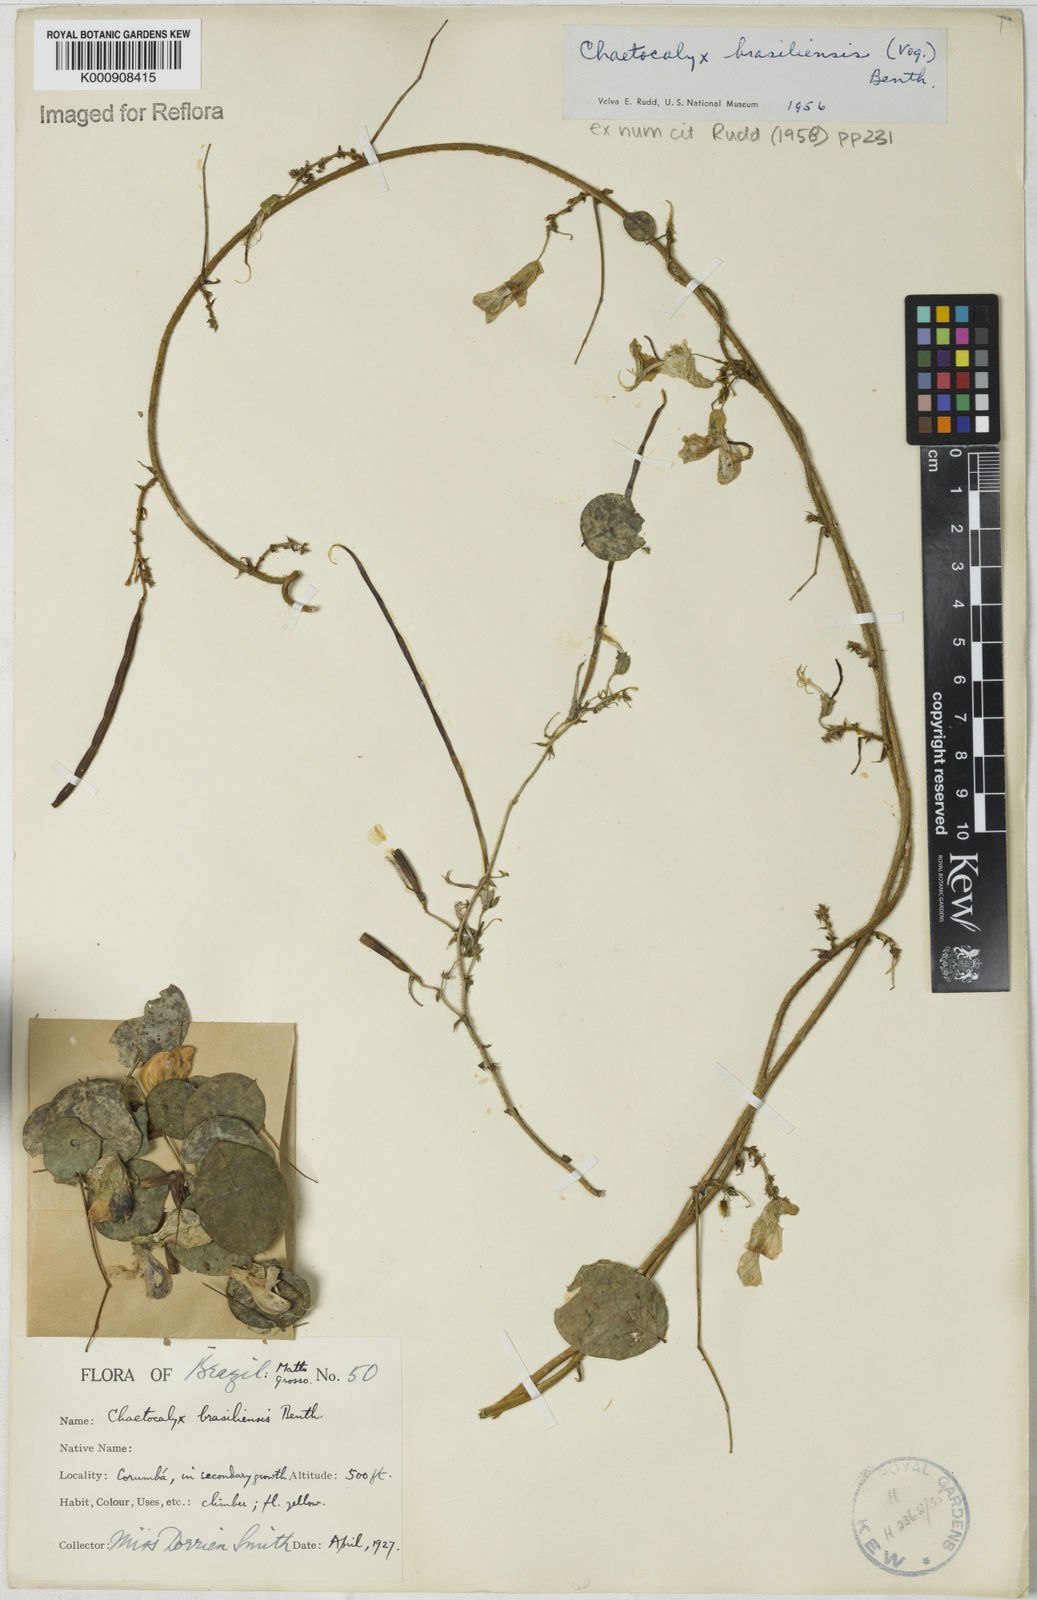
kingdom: Plantae
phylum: Tracheophyta
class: Magnoliopsida
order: Fabales
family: Fabaceae
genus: Nissolia
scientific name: Nissolia brasiliensis
